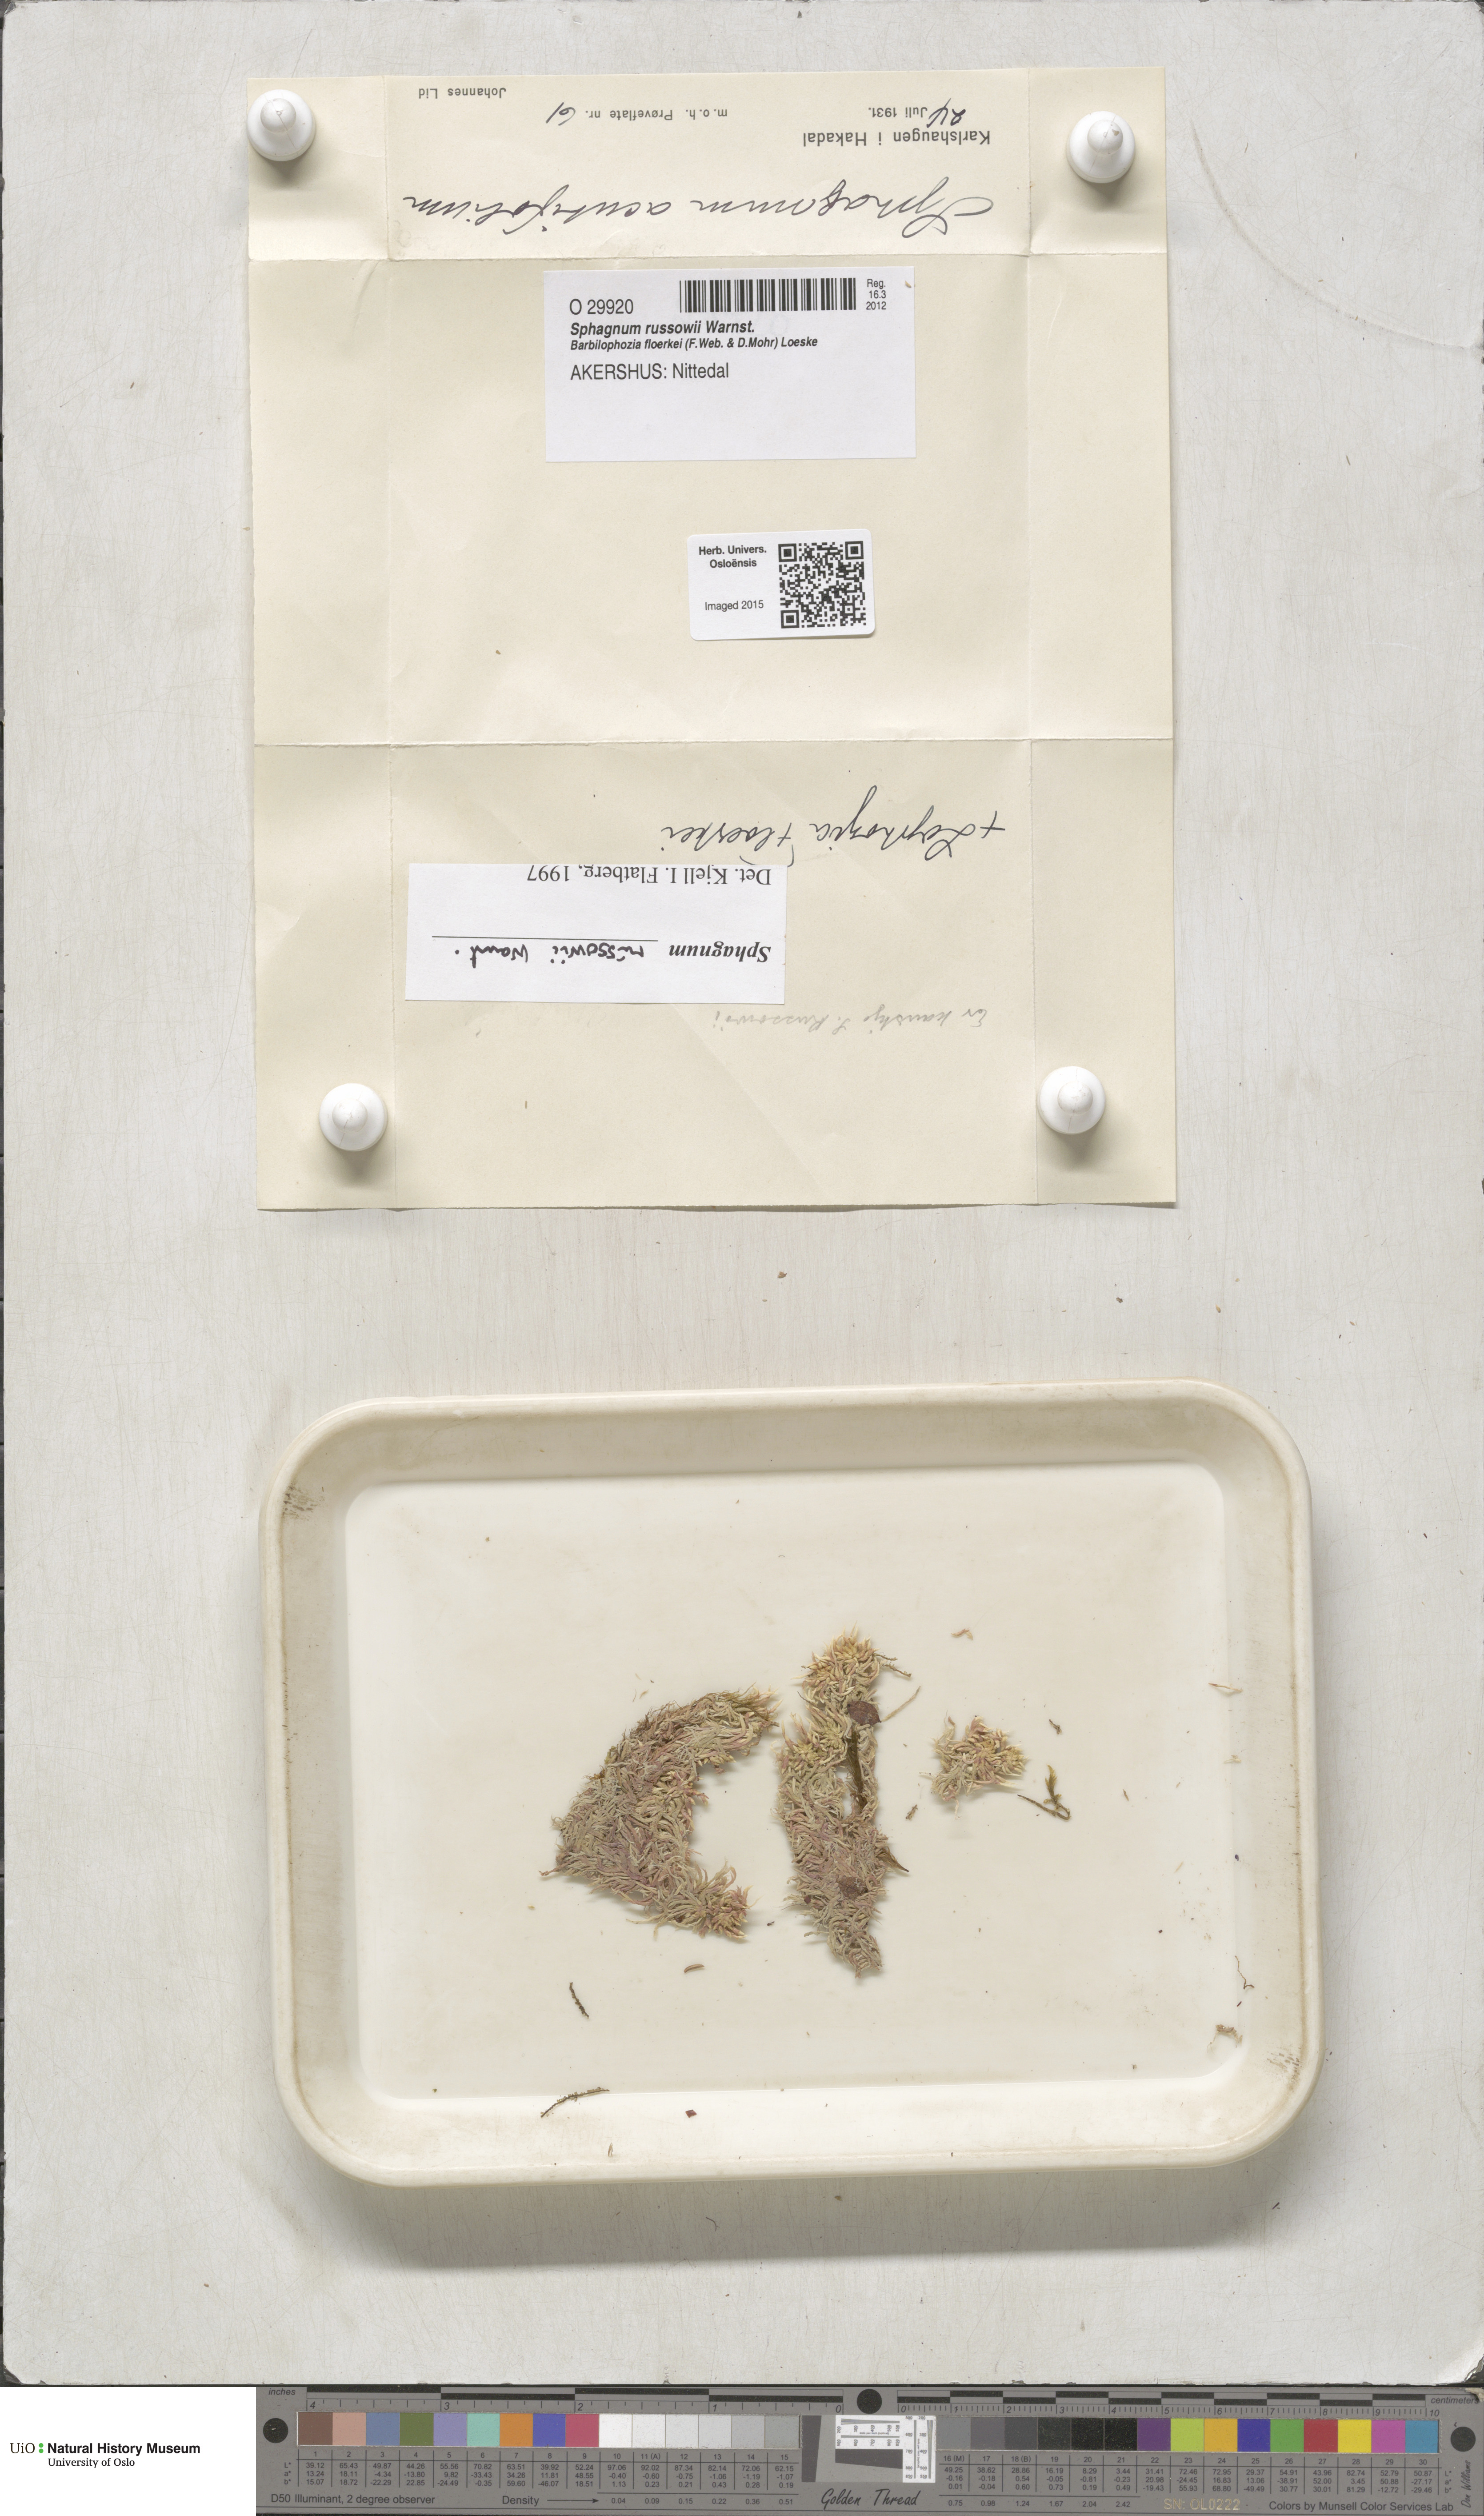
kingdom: Plantae
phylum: Bryophyta
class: Sphagnopsida
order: Sphagnales
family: Sphagnaceae
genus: Sphagnum
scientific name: Sphagnum russowii
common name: Russow's peat moss
